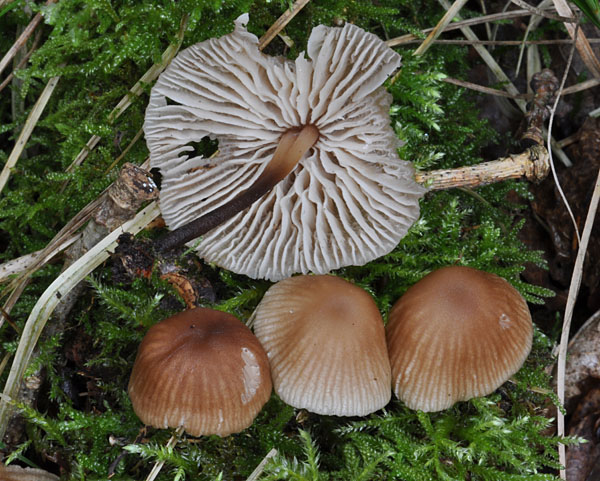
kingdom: Fungi
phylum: Basidiomycota
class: Agaricomycetes
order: Agaricales
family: Omphalotaceae
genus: Gymnopus
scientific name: Gymnopus inodorus
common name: lugtløs fladhat
